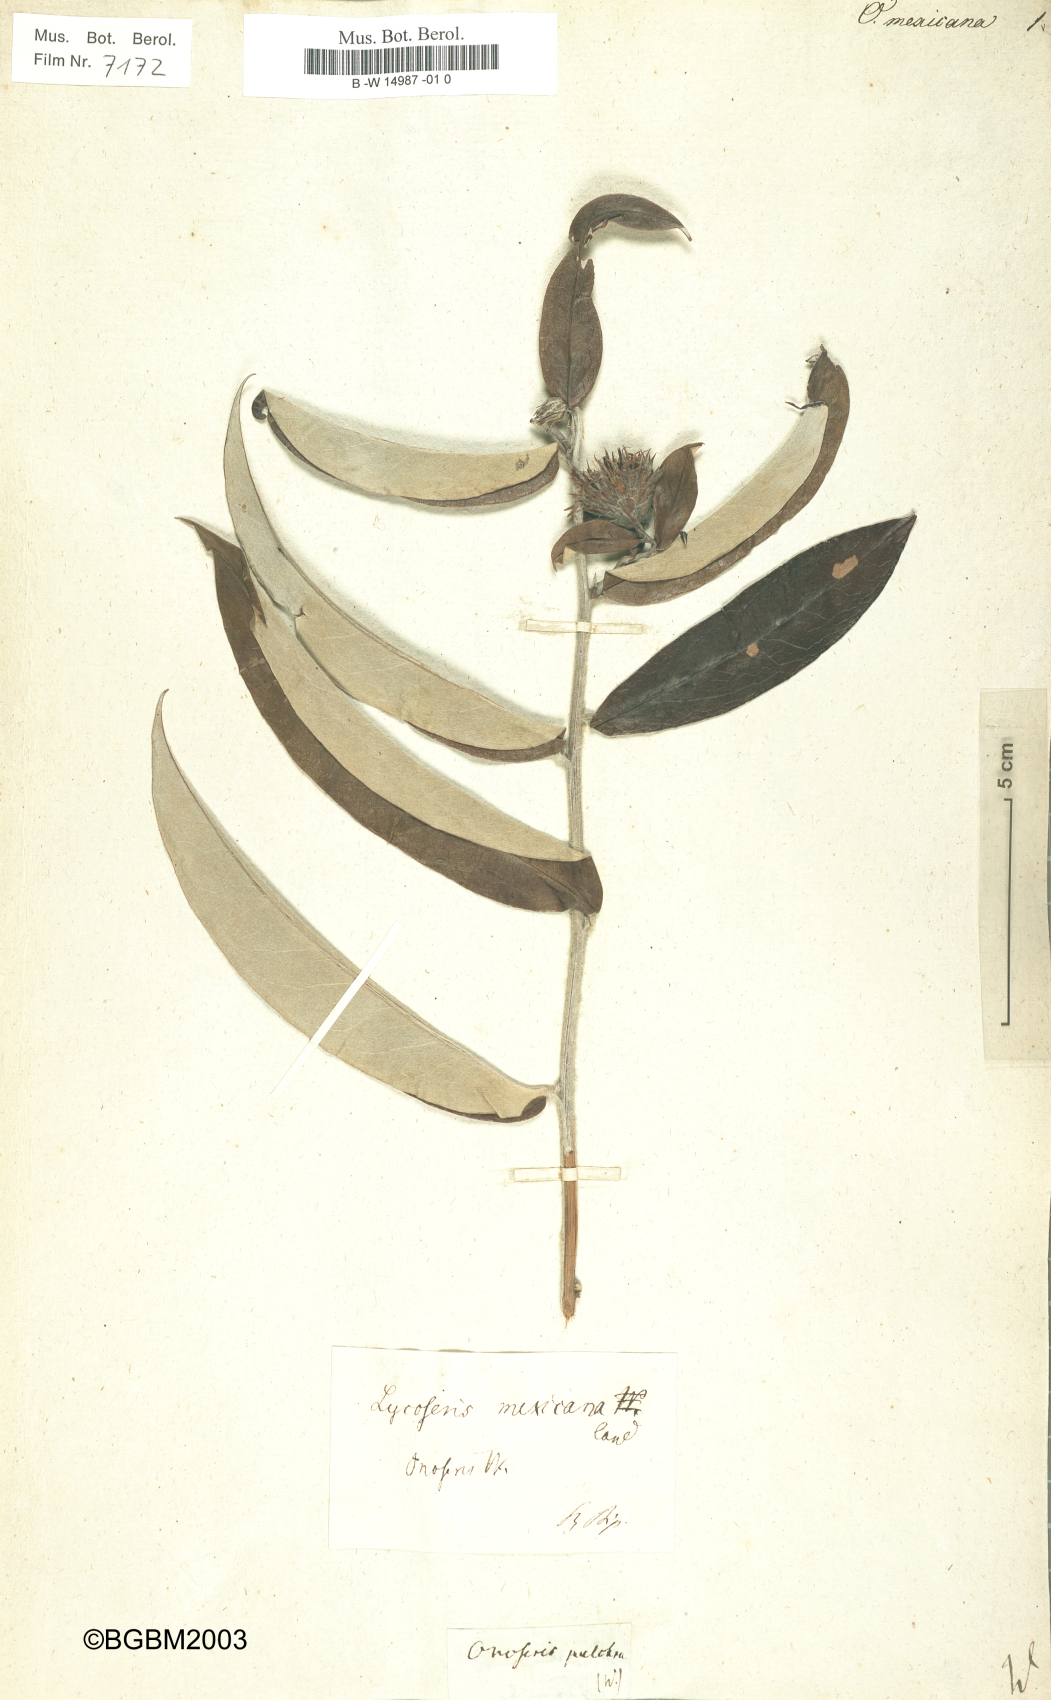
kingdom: Plantae
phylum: Tracheophyta
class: Magnoliopsida
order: Asterales
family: Asteraceae
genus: Lycoseris
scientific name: Lycoseris mexicana
